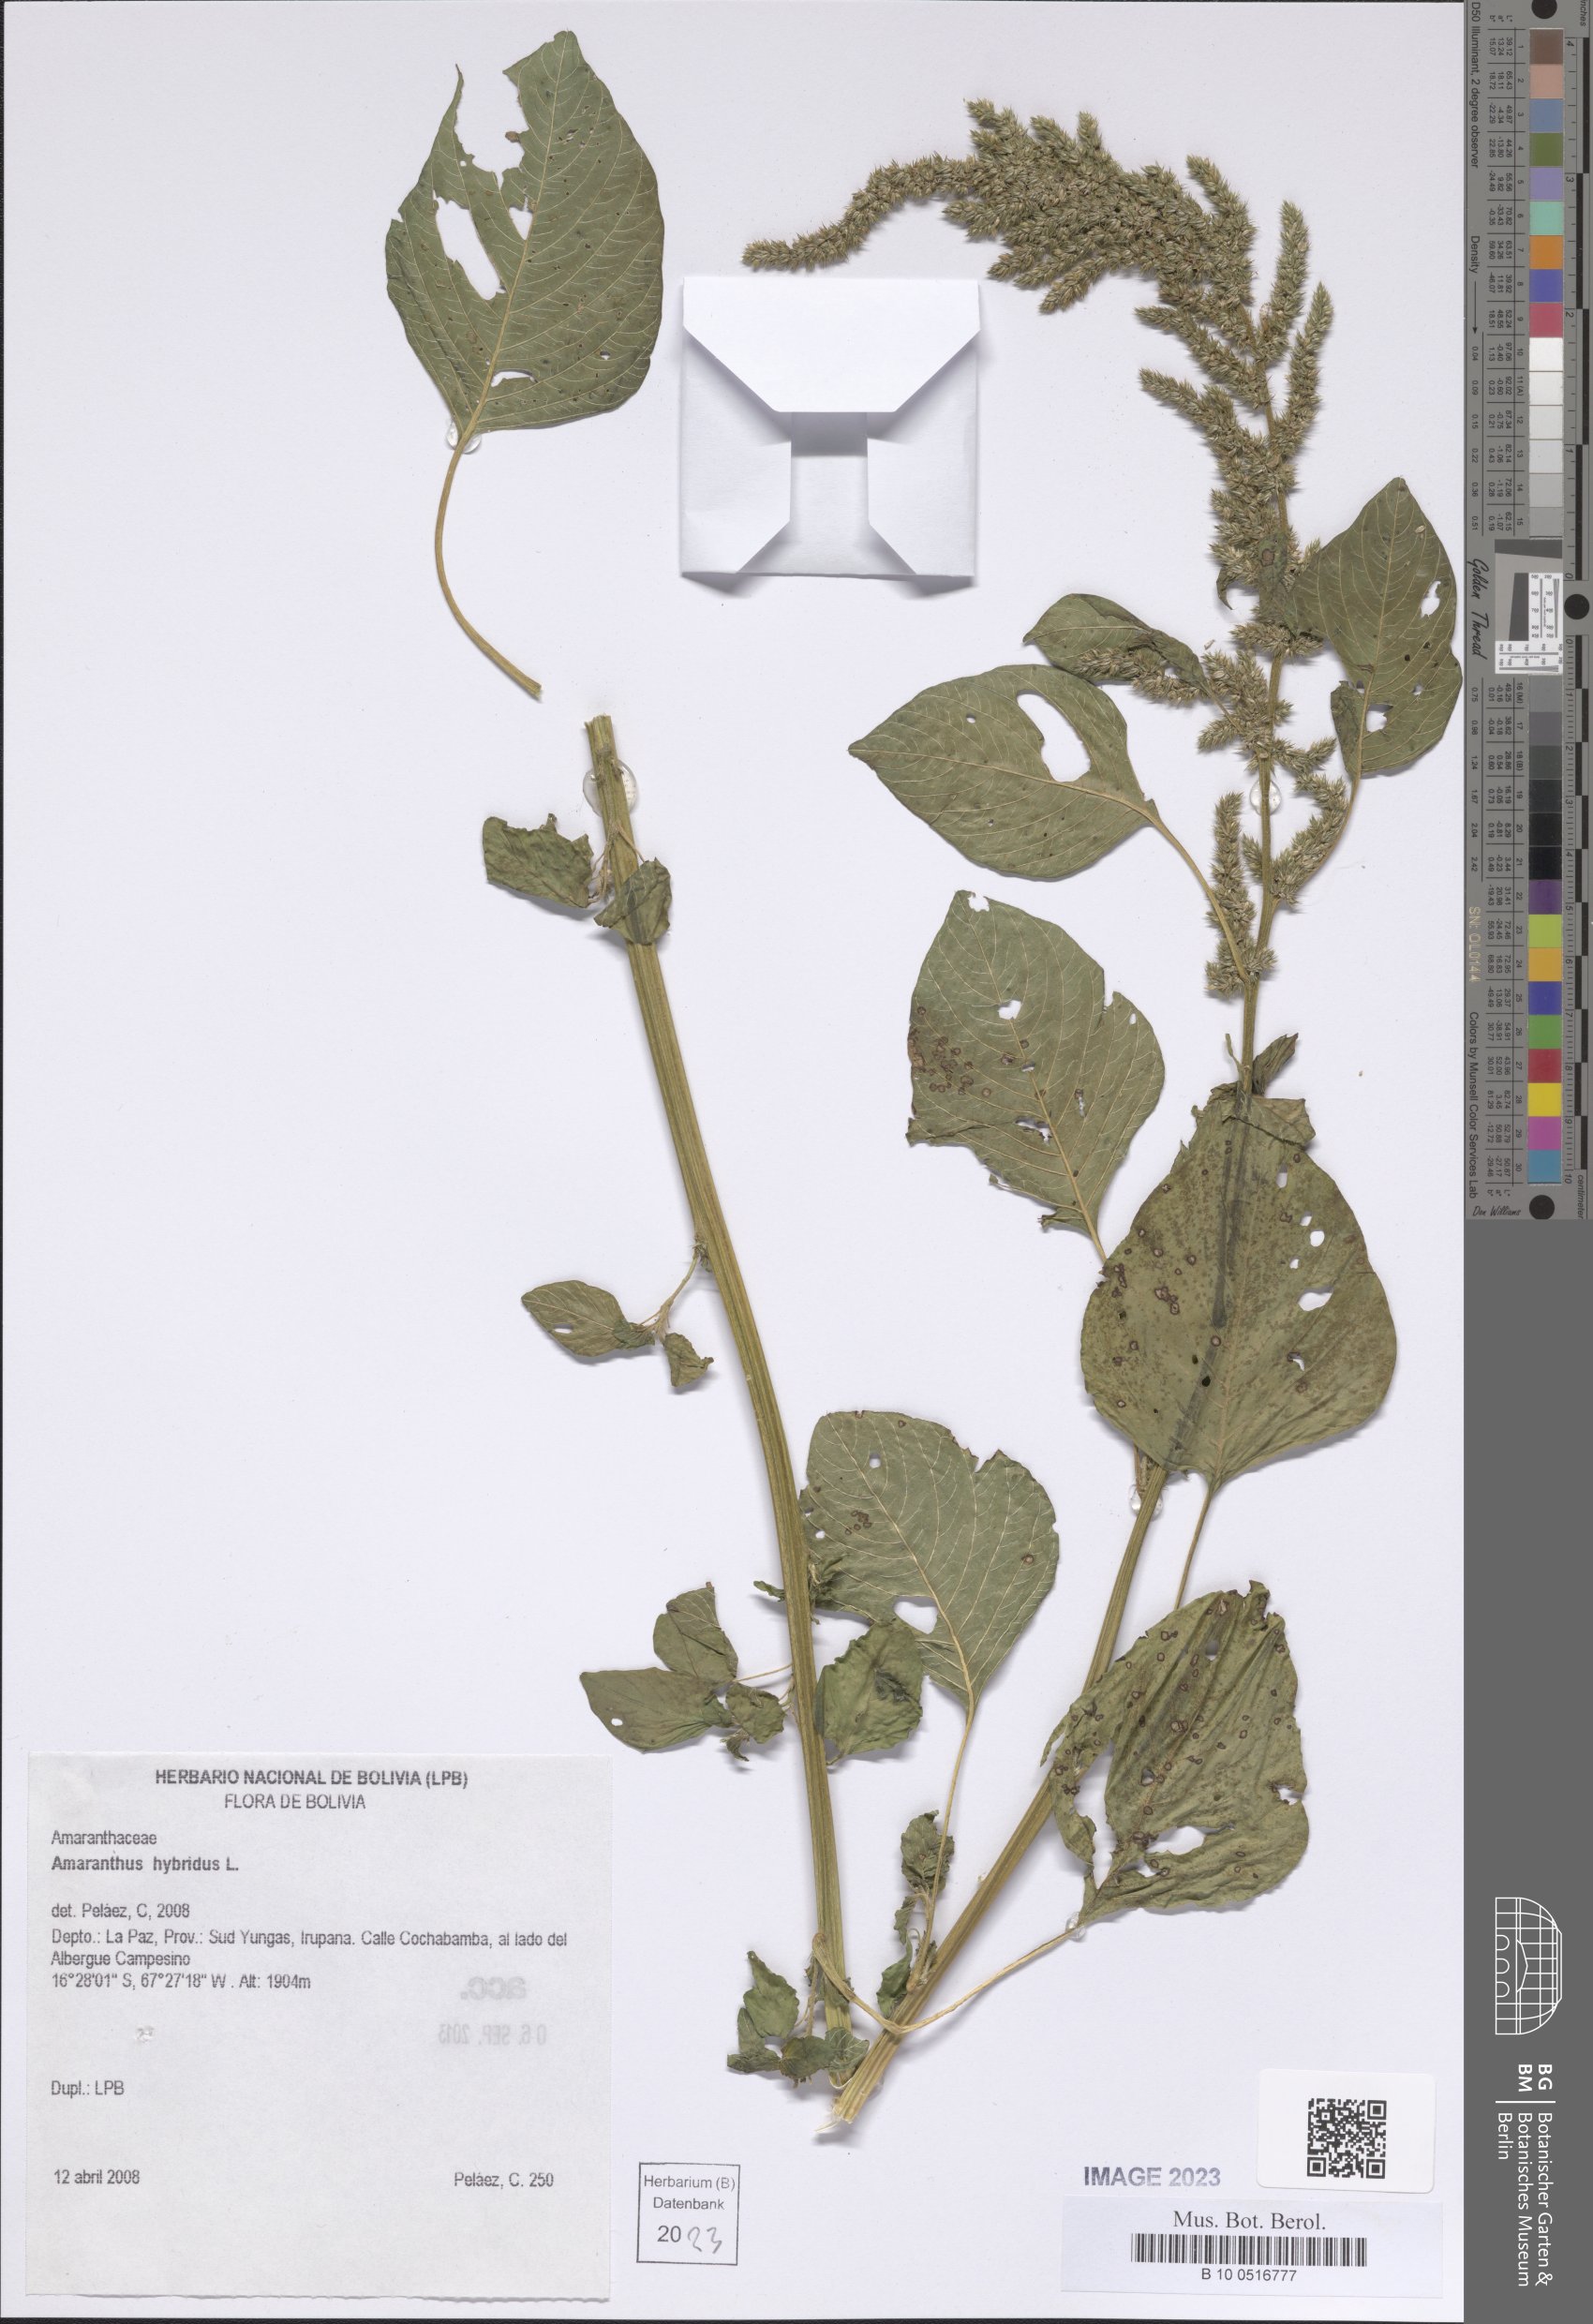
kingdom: Plantae
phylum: Tracheophyta
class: Magnoliopsida
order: Caryophyllales
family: Amaranthaceae
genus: Amaranthus
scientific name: Amaranthus hybridus
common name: Green amaranth
